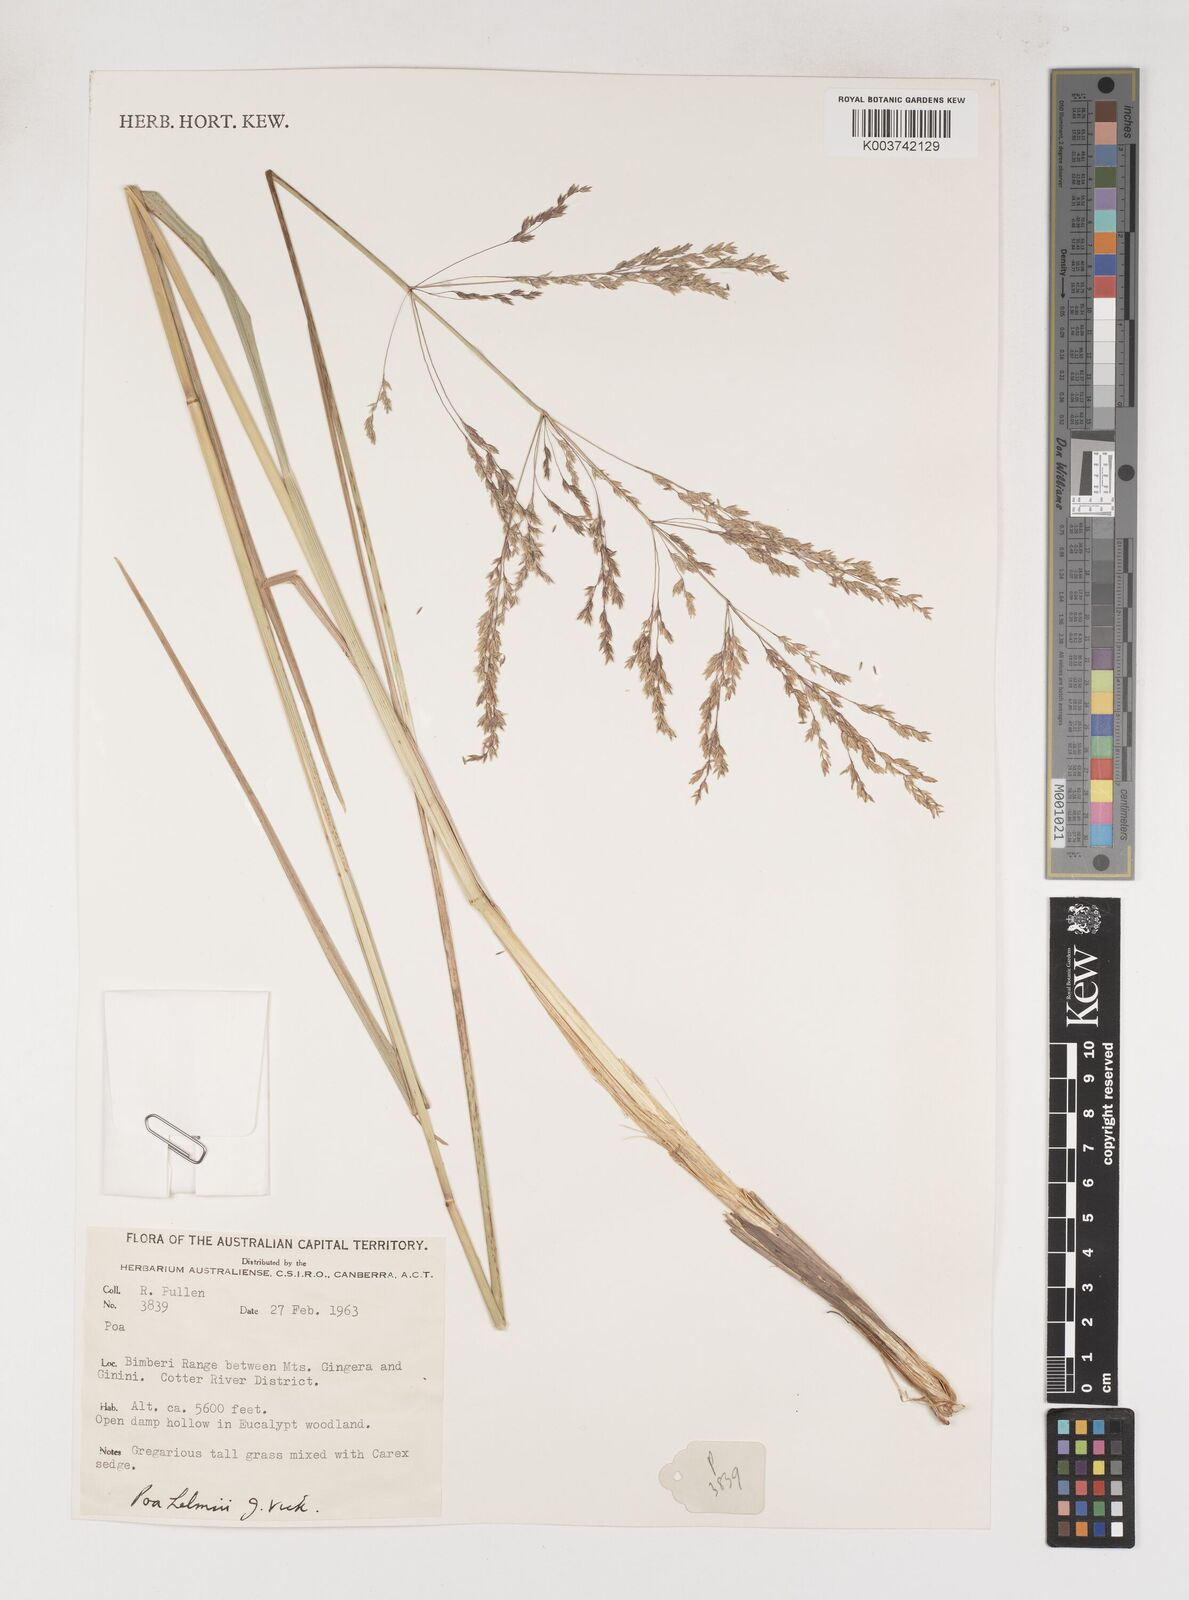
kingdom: Plantae
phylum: Tracheophyta
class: Liliopsida
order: Poales
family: Poaceae
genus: Poa
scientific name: Poa helmsii
